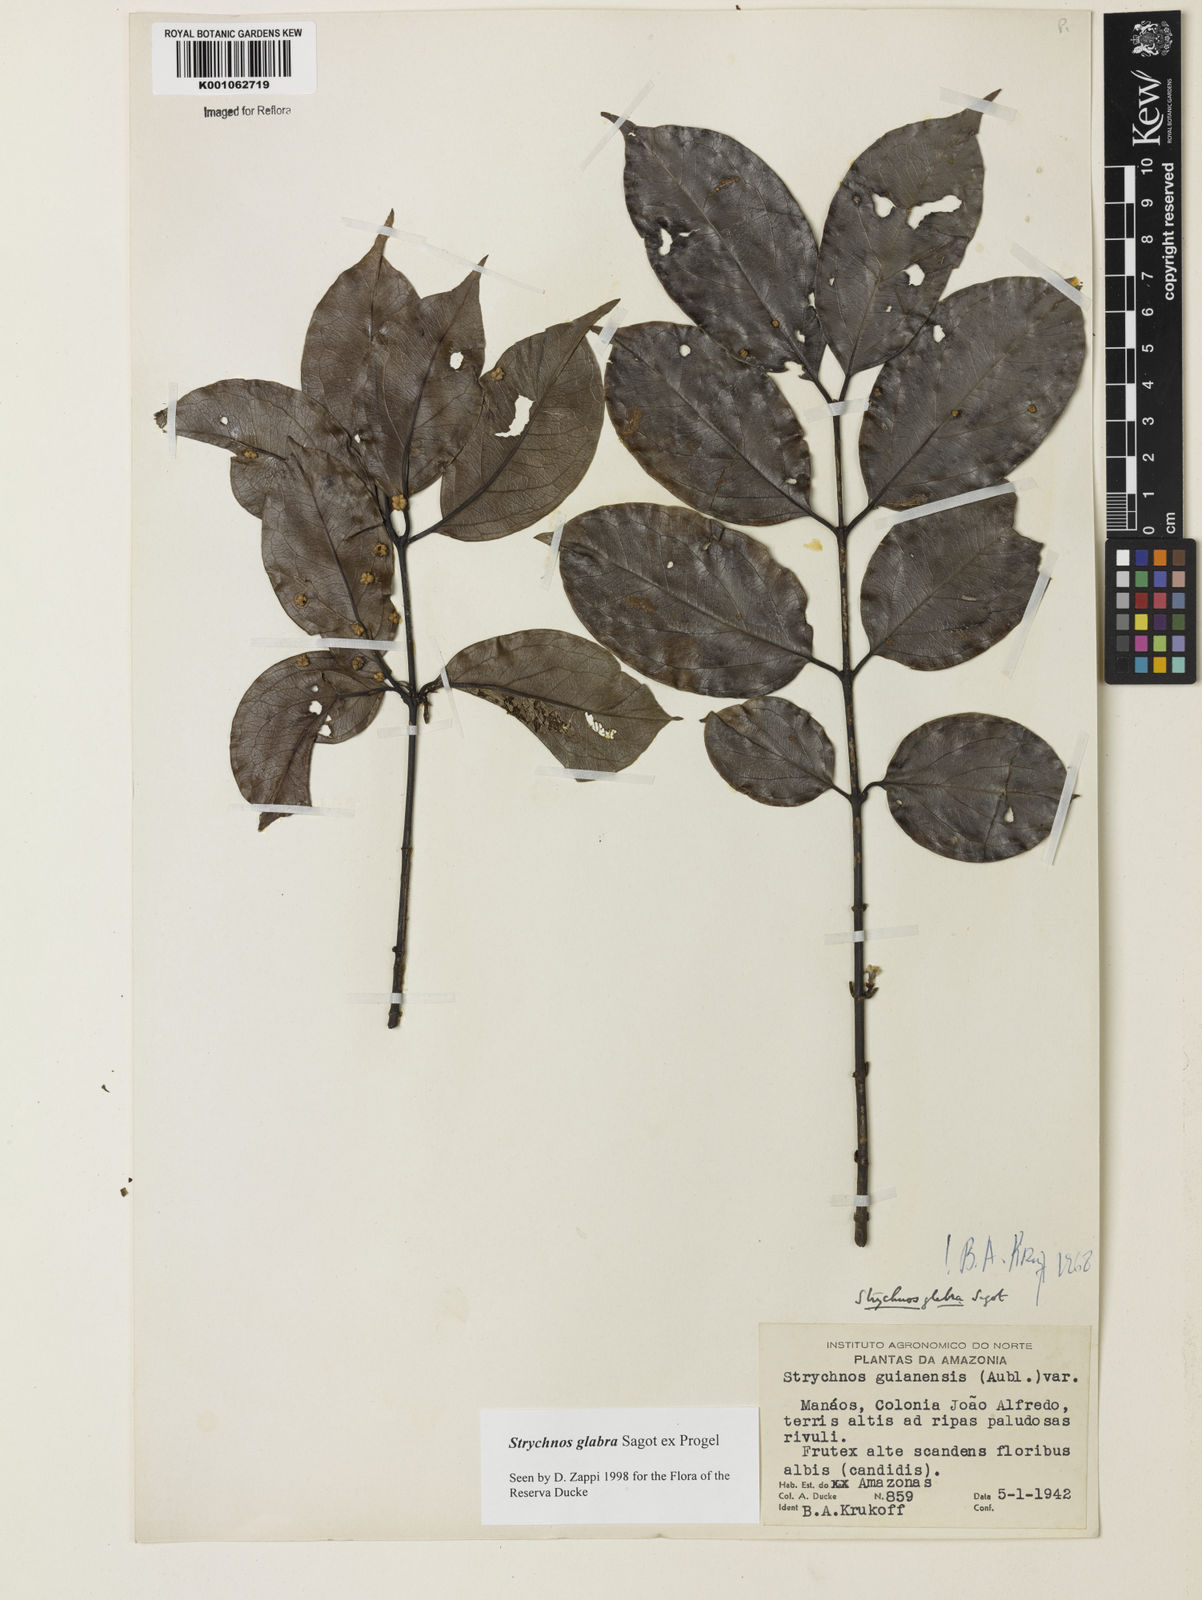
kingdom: Plantae
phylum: Tracheophyta
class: Magnoliopsida
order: Gentianales
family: Loganiaceae
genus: Strychnos
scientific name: Strychnos glabra
